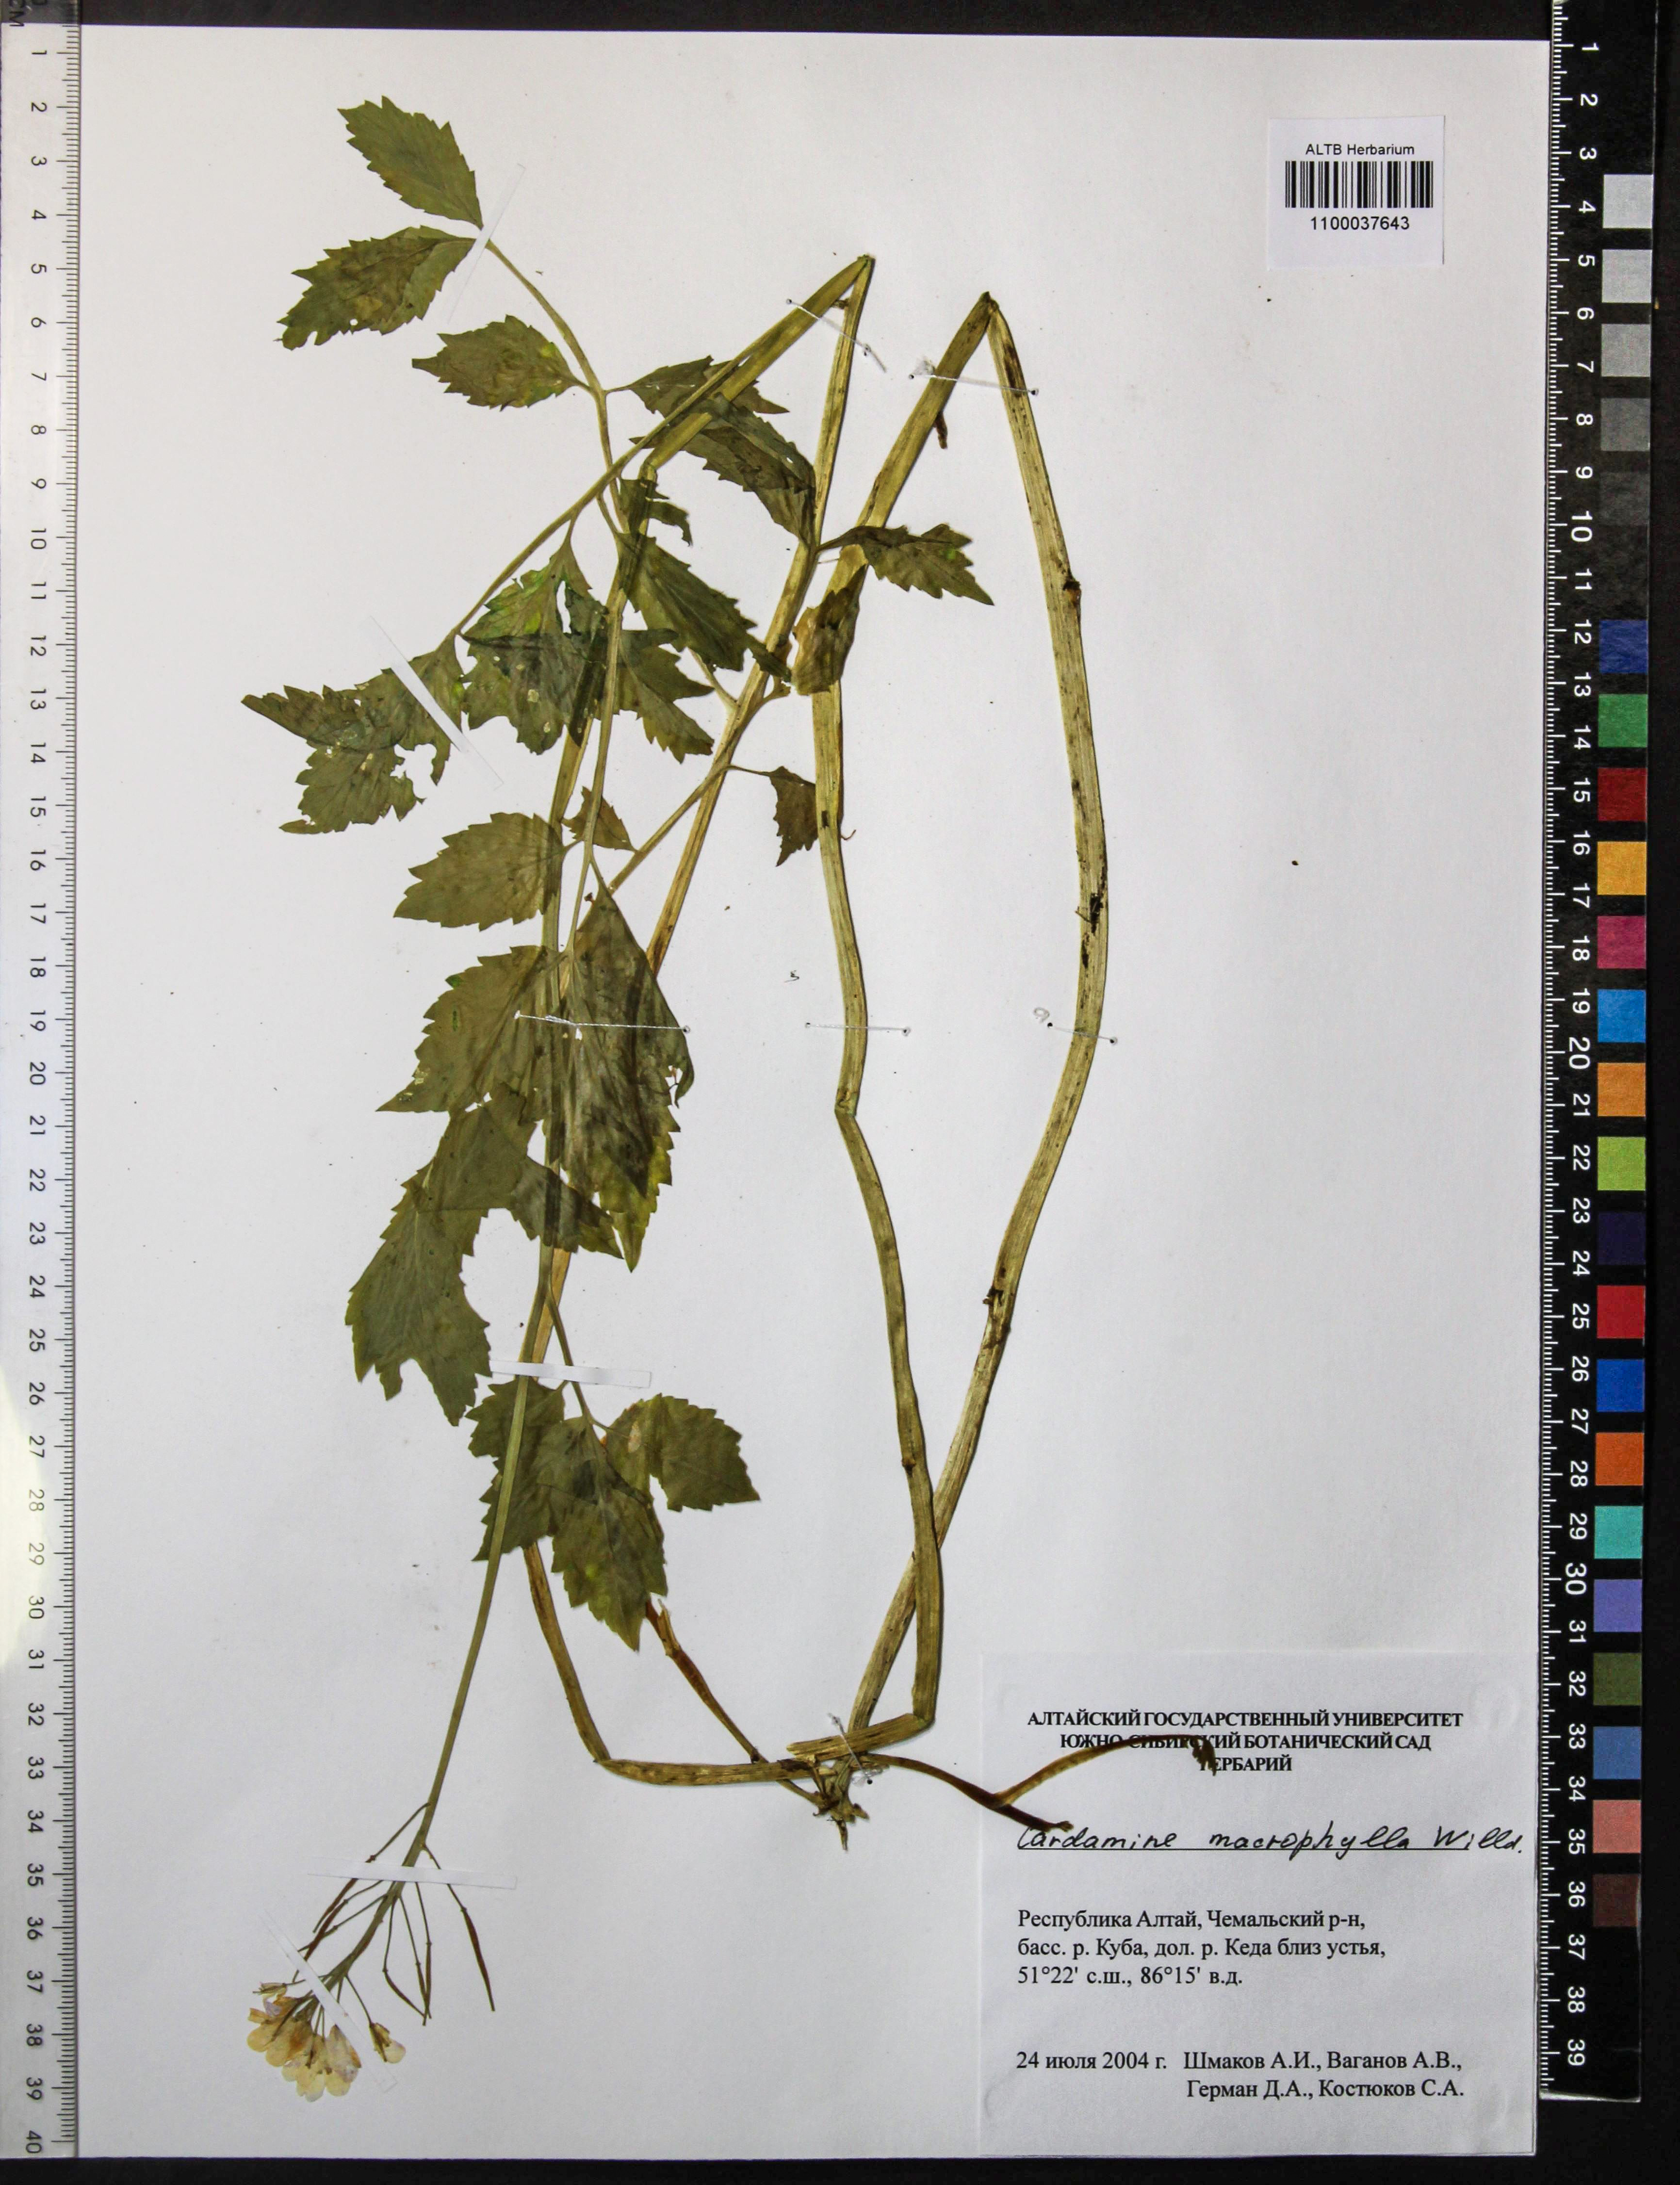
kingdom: Plantae
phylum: Tracheophyta
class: Magnoliopsida
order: Brassicales
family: Brassicaceae
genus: Cardamine
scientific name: Cardamine macrophylla
